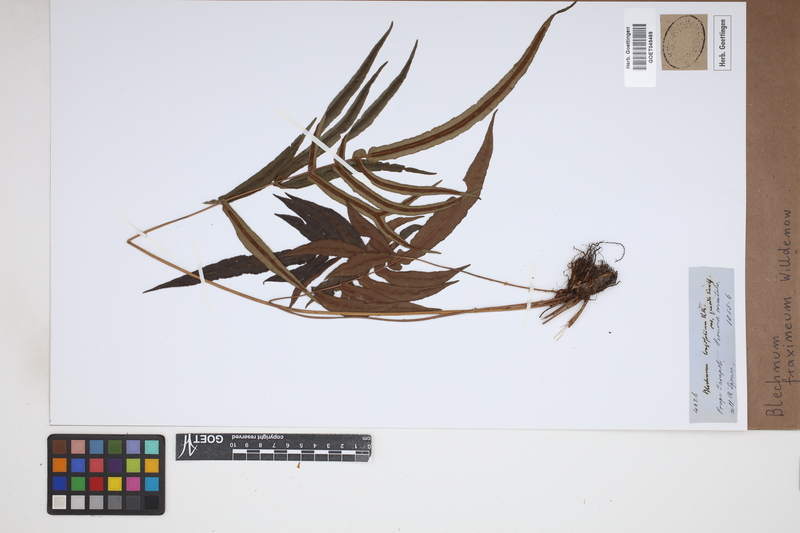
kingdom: Plantae
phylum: Tracheophyta
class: Polypodiopsida
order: Polypodiales
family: Blechnaceae
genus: Blechnum
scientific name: Blechnum gracile
